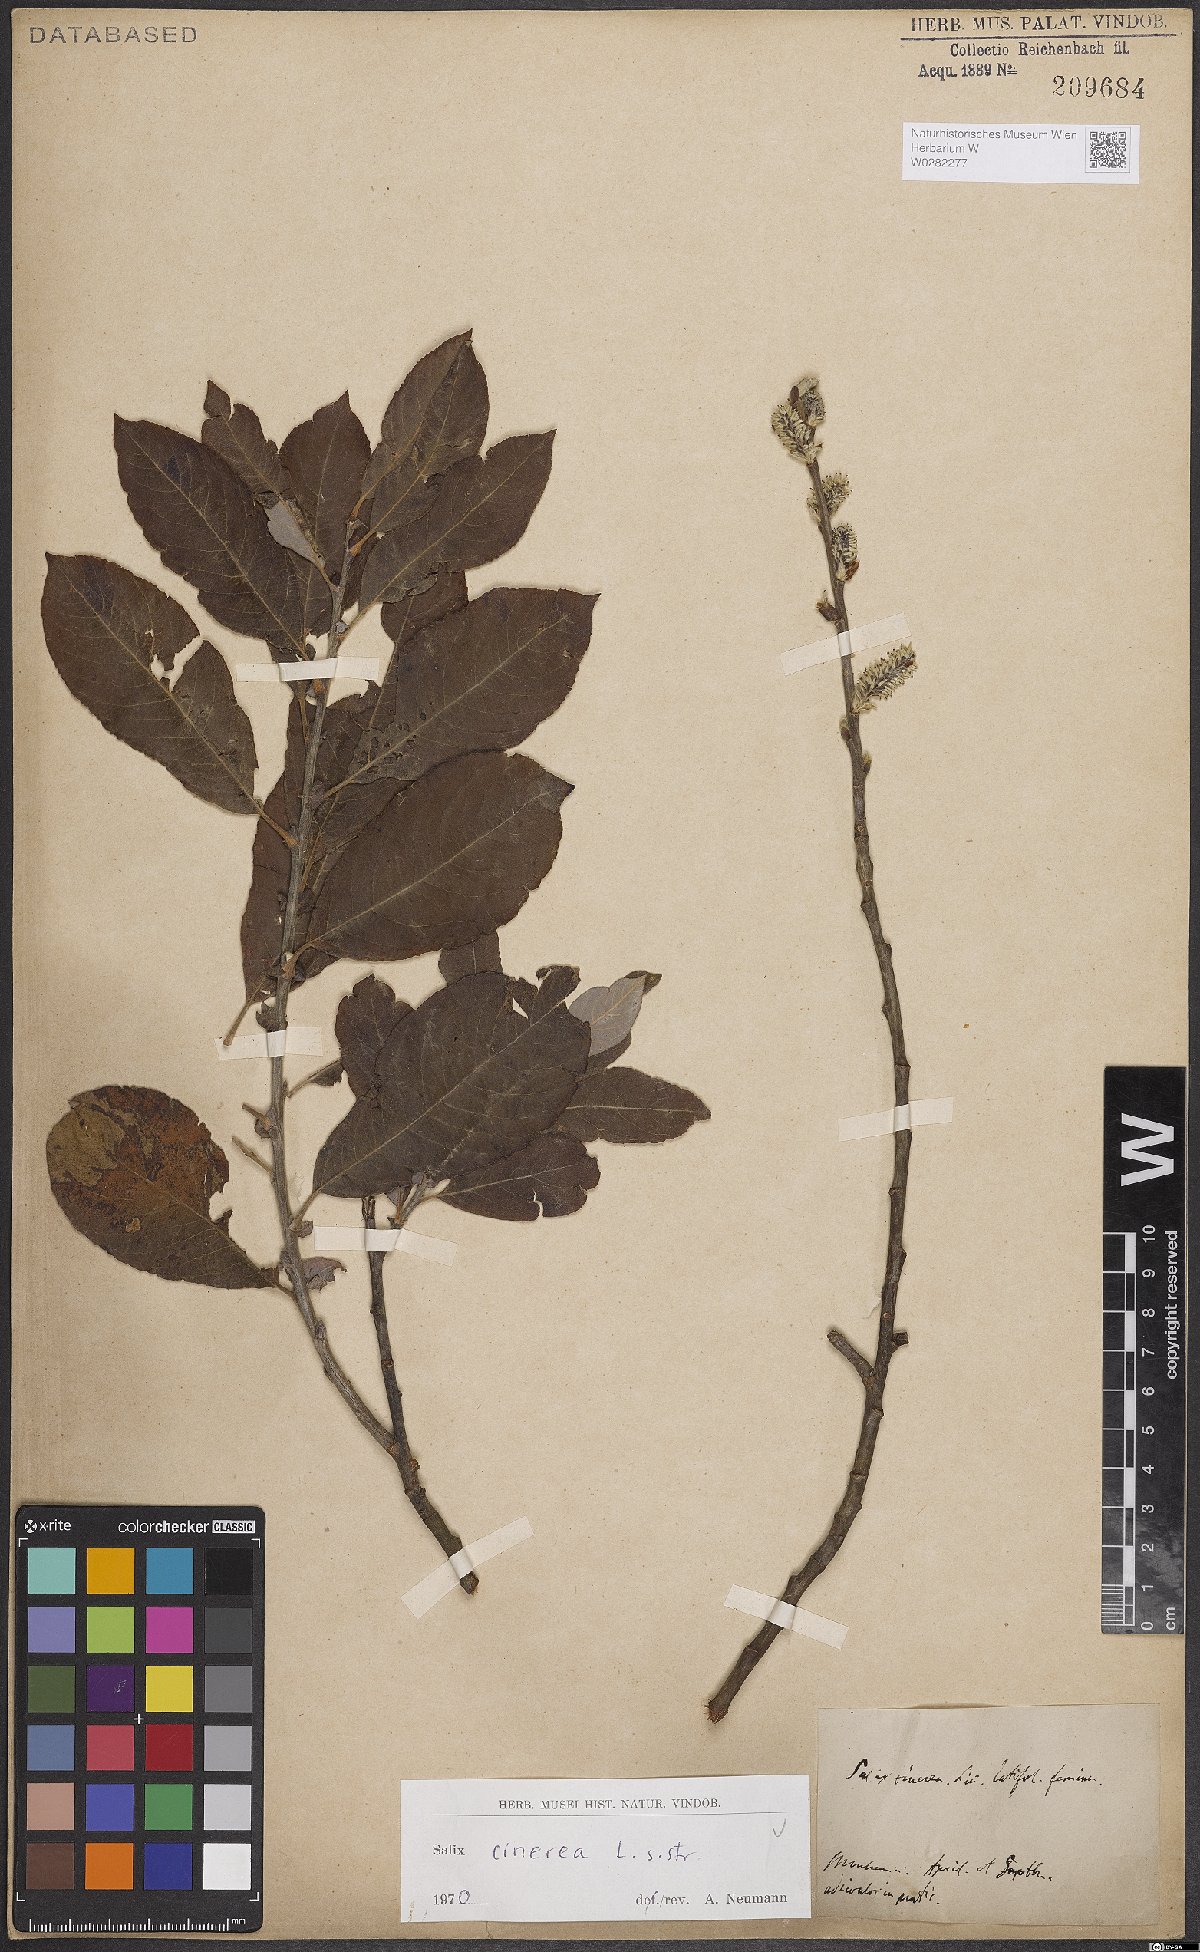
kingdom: Plantae
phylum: Tracheophyta
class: Magnoliopsida
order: Malpighiales
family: Salicaceae
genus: Salix
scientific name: Salix cinerea
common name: Common sallow
